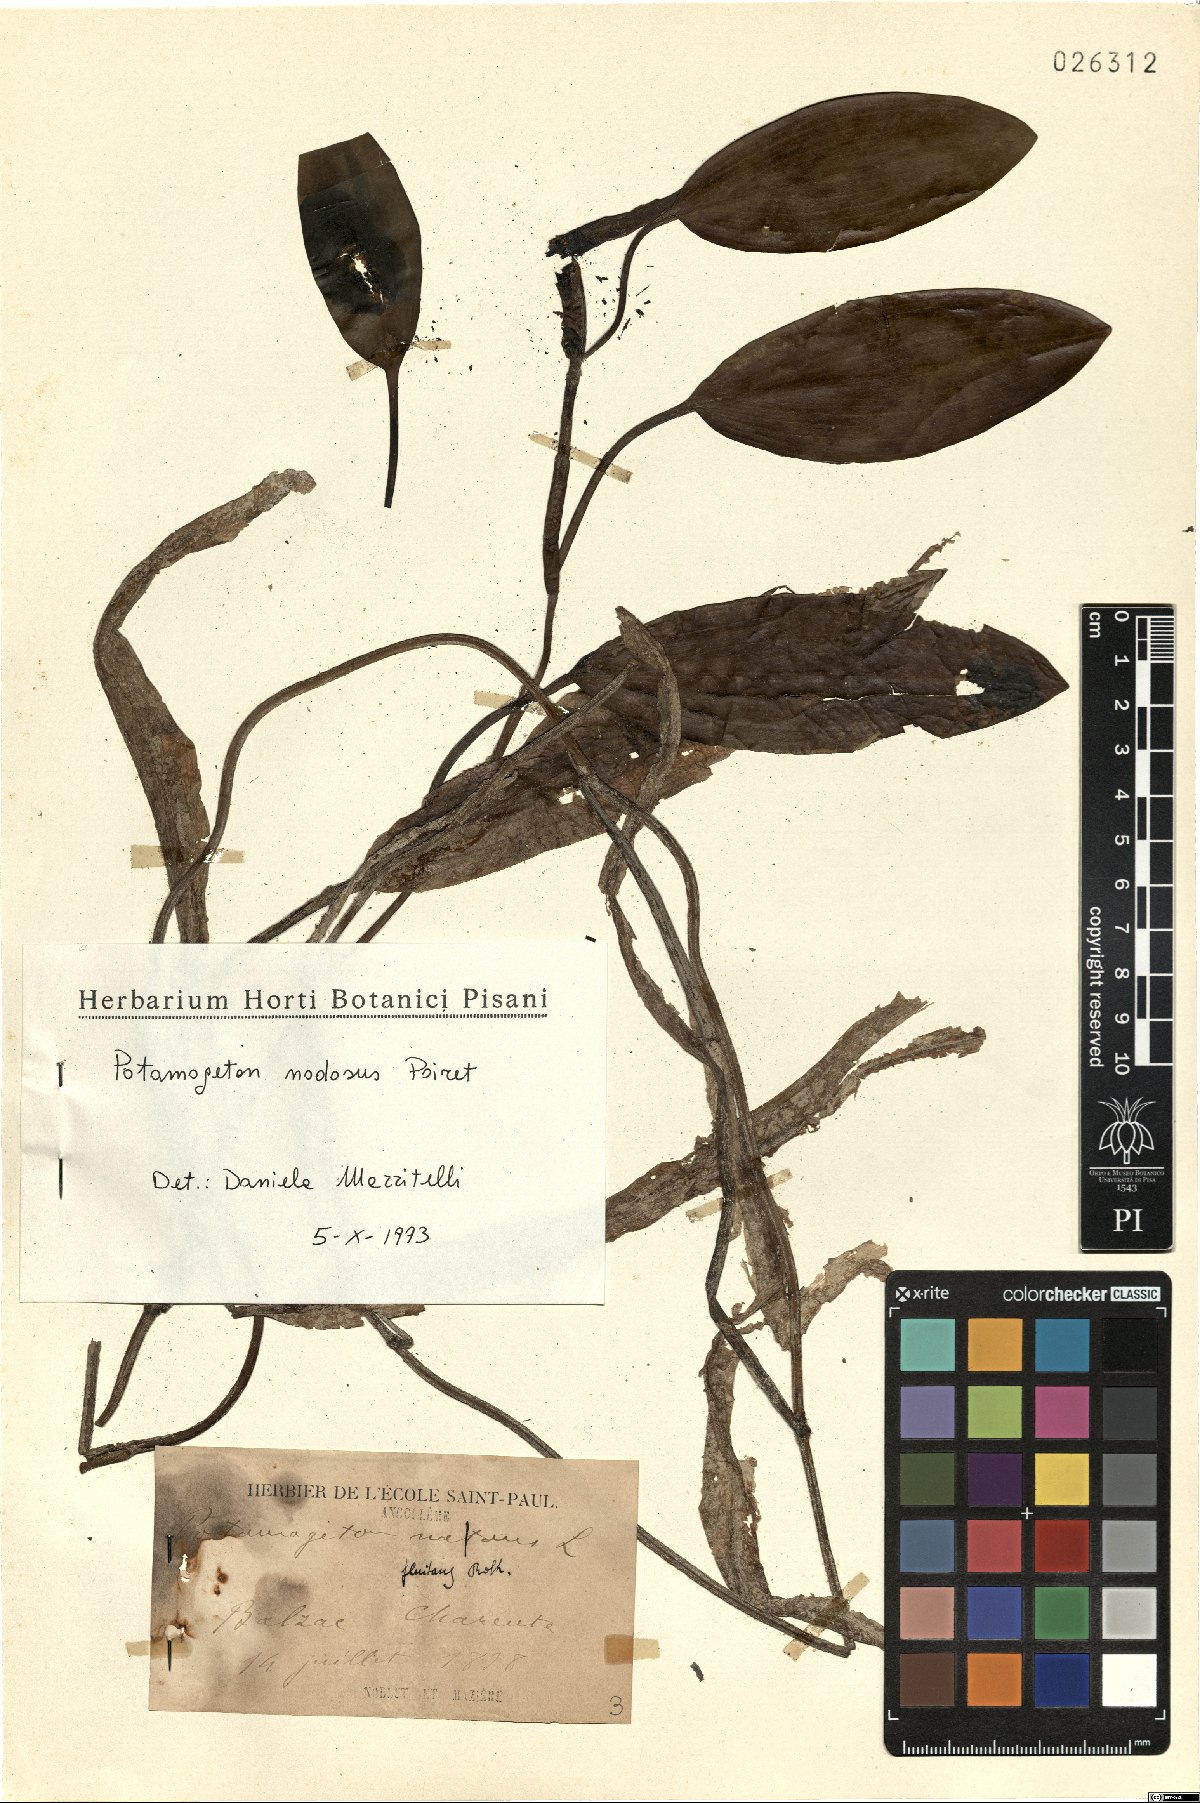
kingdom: Plantae
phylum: Tracheophyta
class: Liliopsida
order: Alismatales
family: Potamogetonaceae
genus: Potamogeton
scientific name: Potamogeton nodosus
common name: Loddon pondweed
